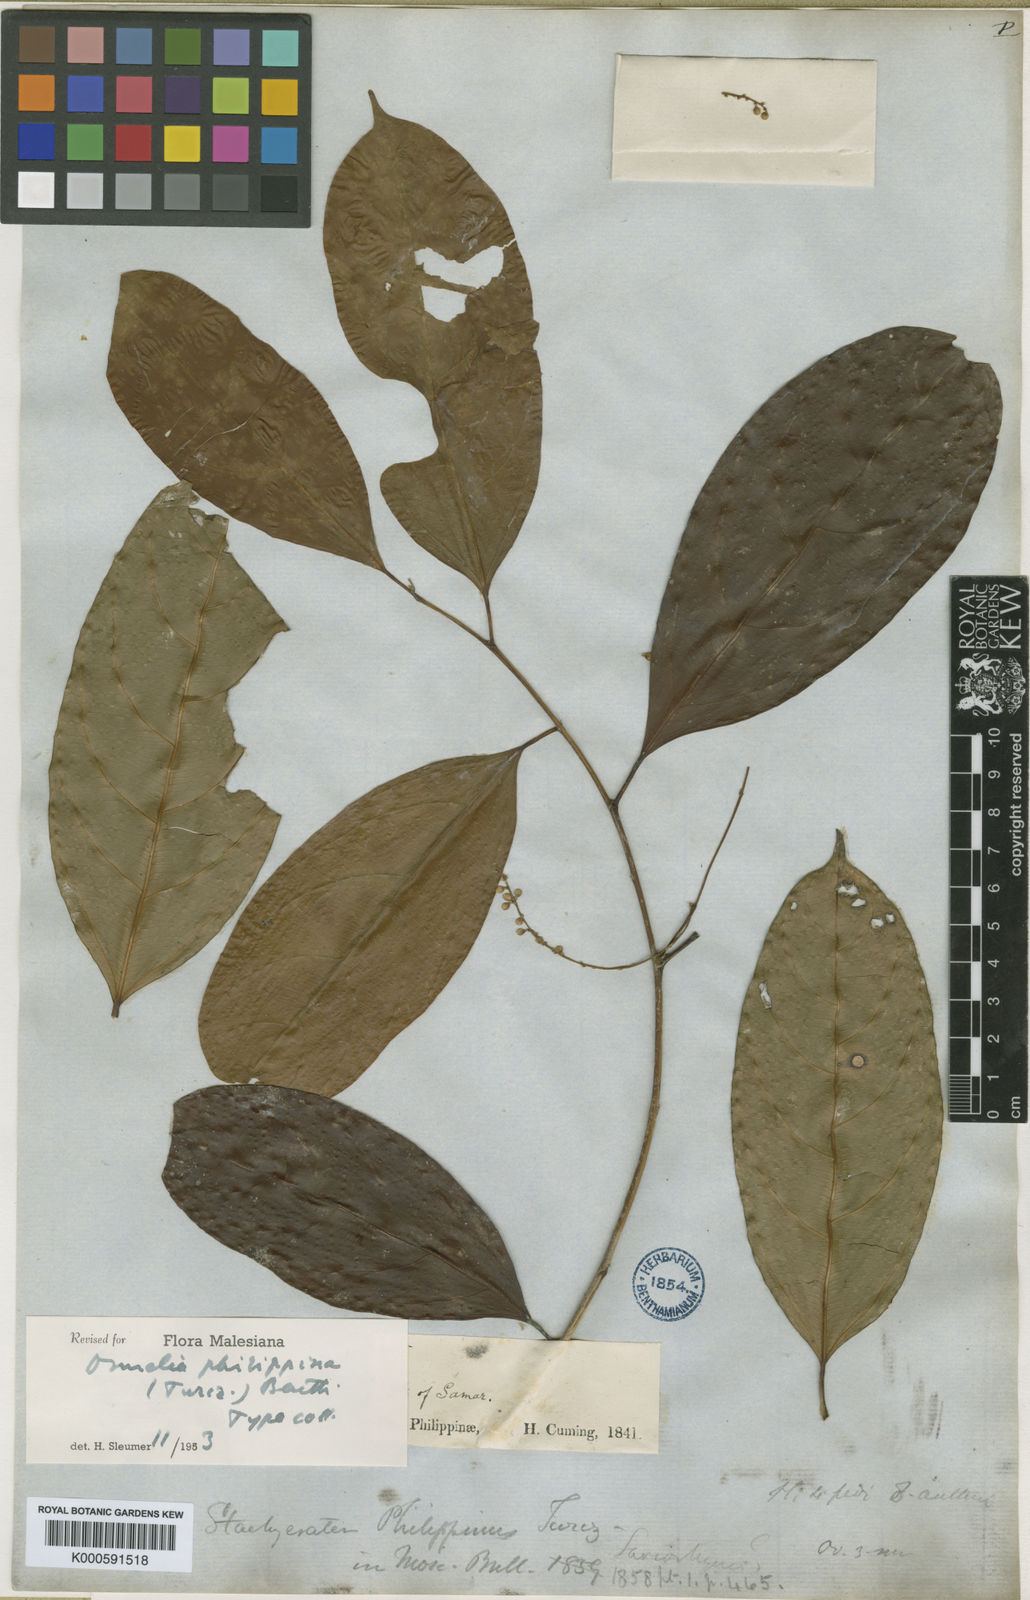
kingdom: Plantae
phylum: Tracheophyta
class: Magnoliopsida
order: Malpighiales
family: Salicaceae
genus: Osmelia
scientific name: Osmelia
